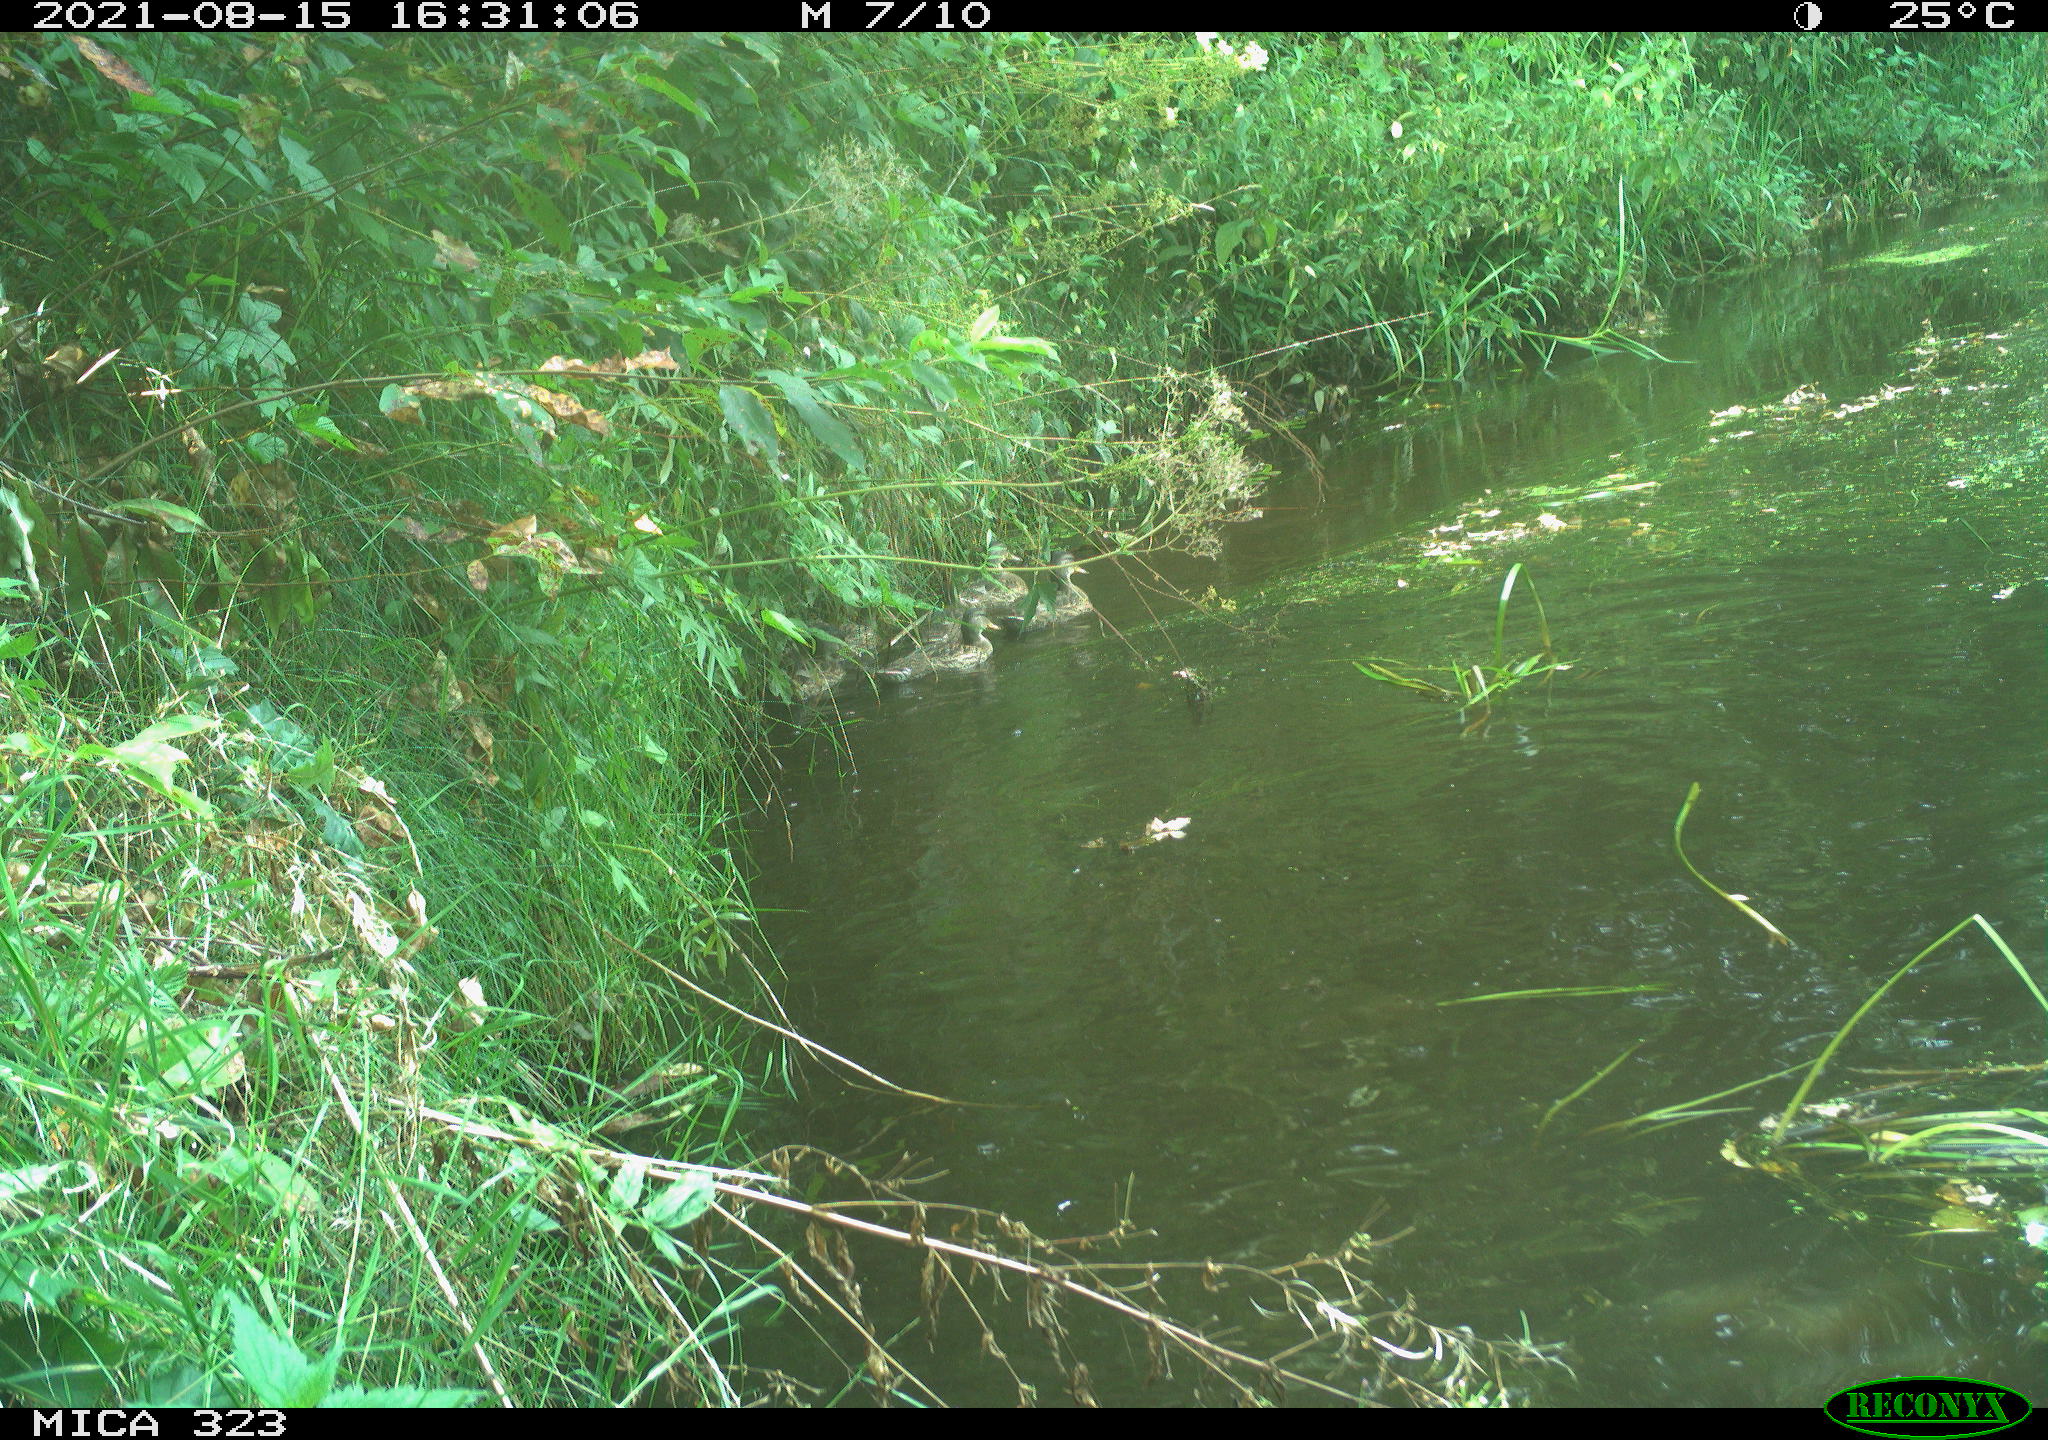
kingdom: Animalia
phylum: Chordata
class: Aves
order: Anseriformes
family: Anatidae
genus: Anas
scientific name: Anas platyrhynchos
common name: Mallard
